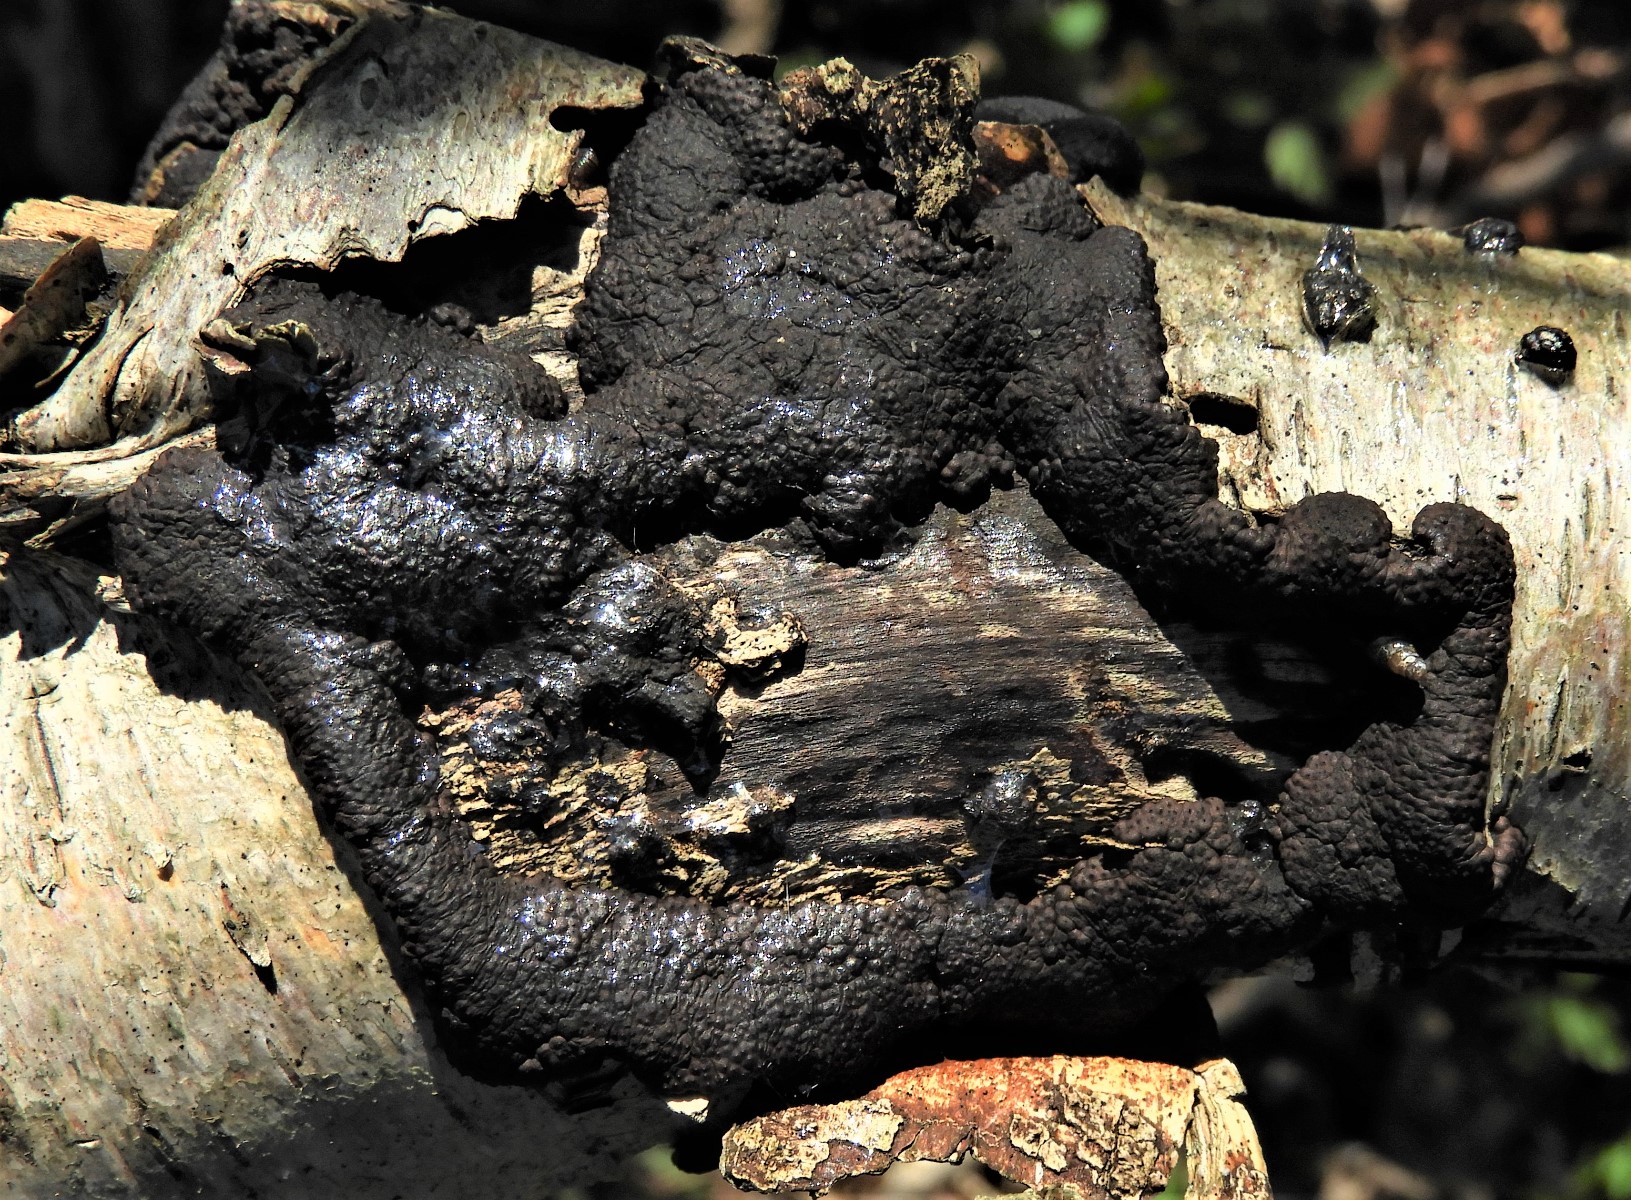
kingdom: Fungi
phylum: Ascomycota
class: Sordariomycetes
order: Xylariales
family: Hypoxylaceae
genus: Jackrogersella
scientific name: Jackrogersella multiformis
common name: foranderlig kulbær
